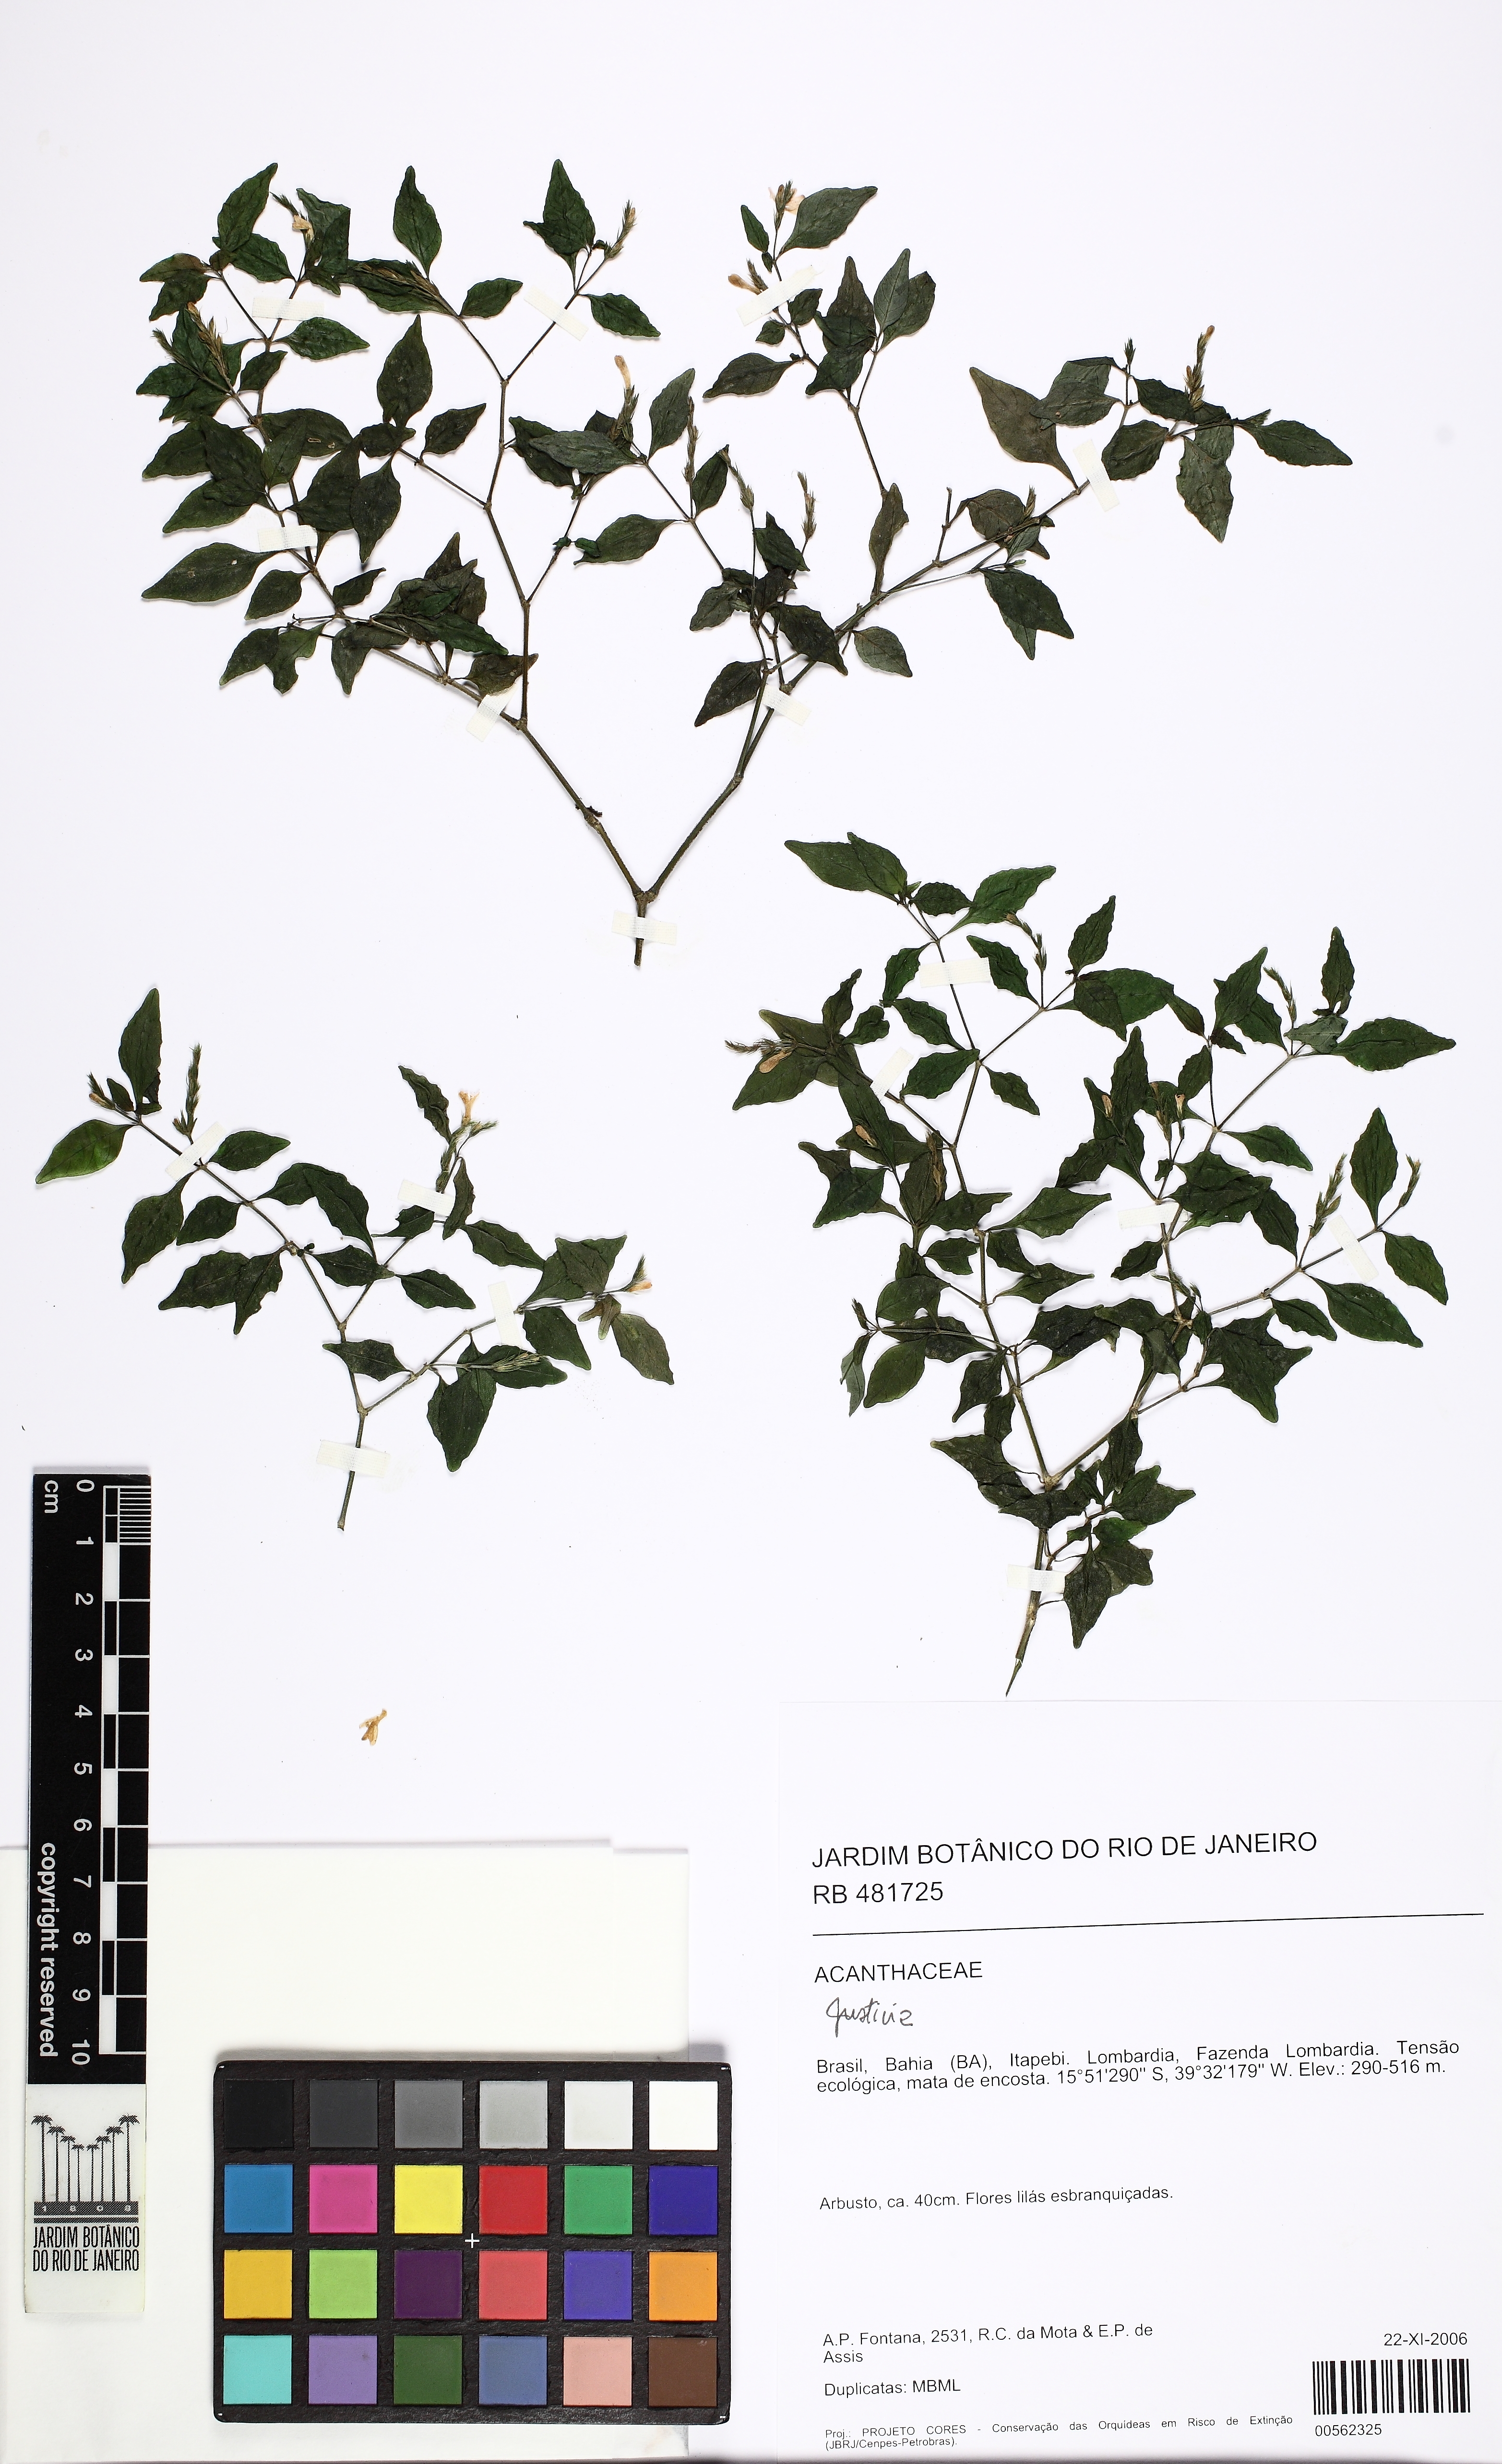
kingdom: Plantae
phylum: Tracheophyta
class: Magnoliopsida
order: Lamiales
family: Acanthaceae
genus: Justicia
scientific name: Justicia
